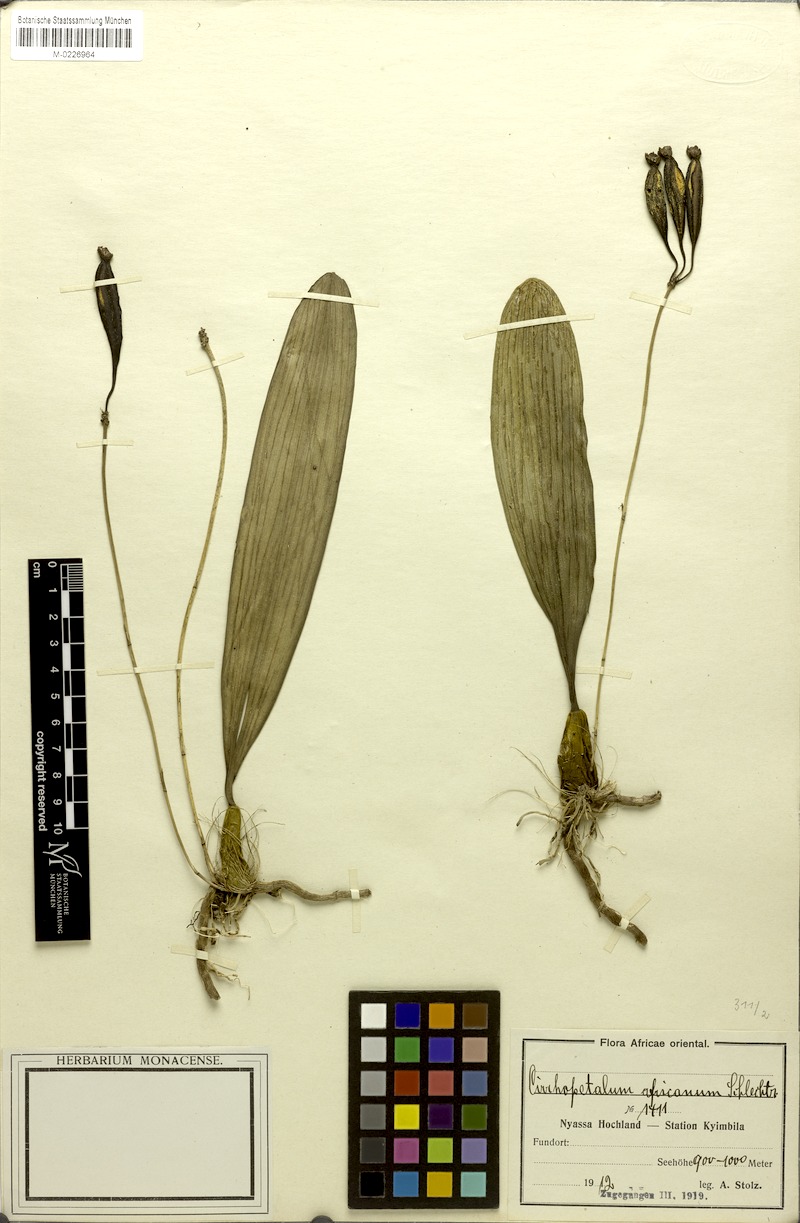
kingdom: Plantae
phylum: Tracheophyta
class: Liliopsida
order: Asparagales
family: Orchidaceae
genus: Bulbophyllum
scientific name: Bulbophyllum longiflorum
